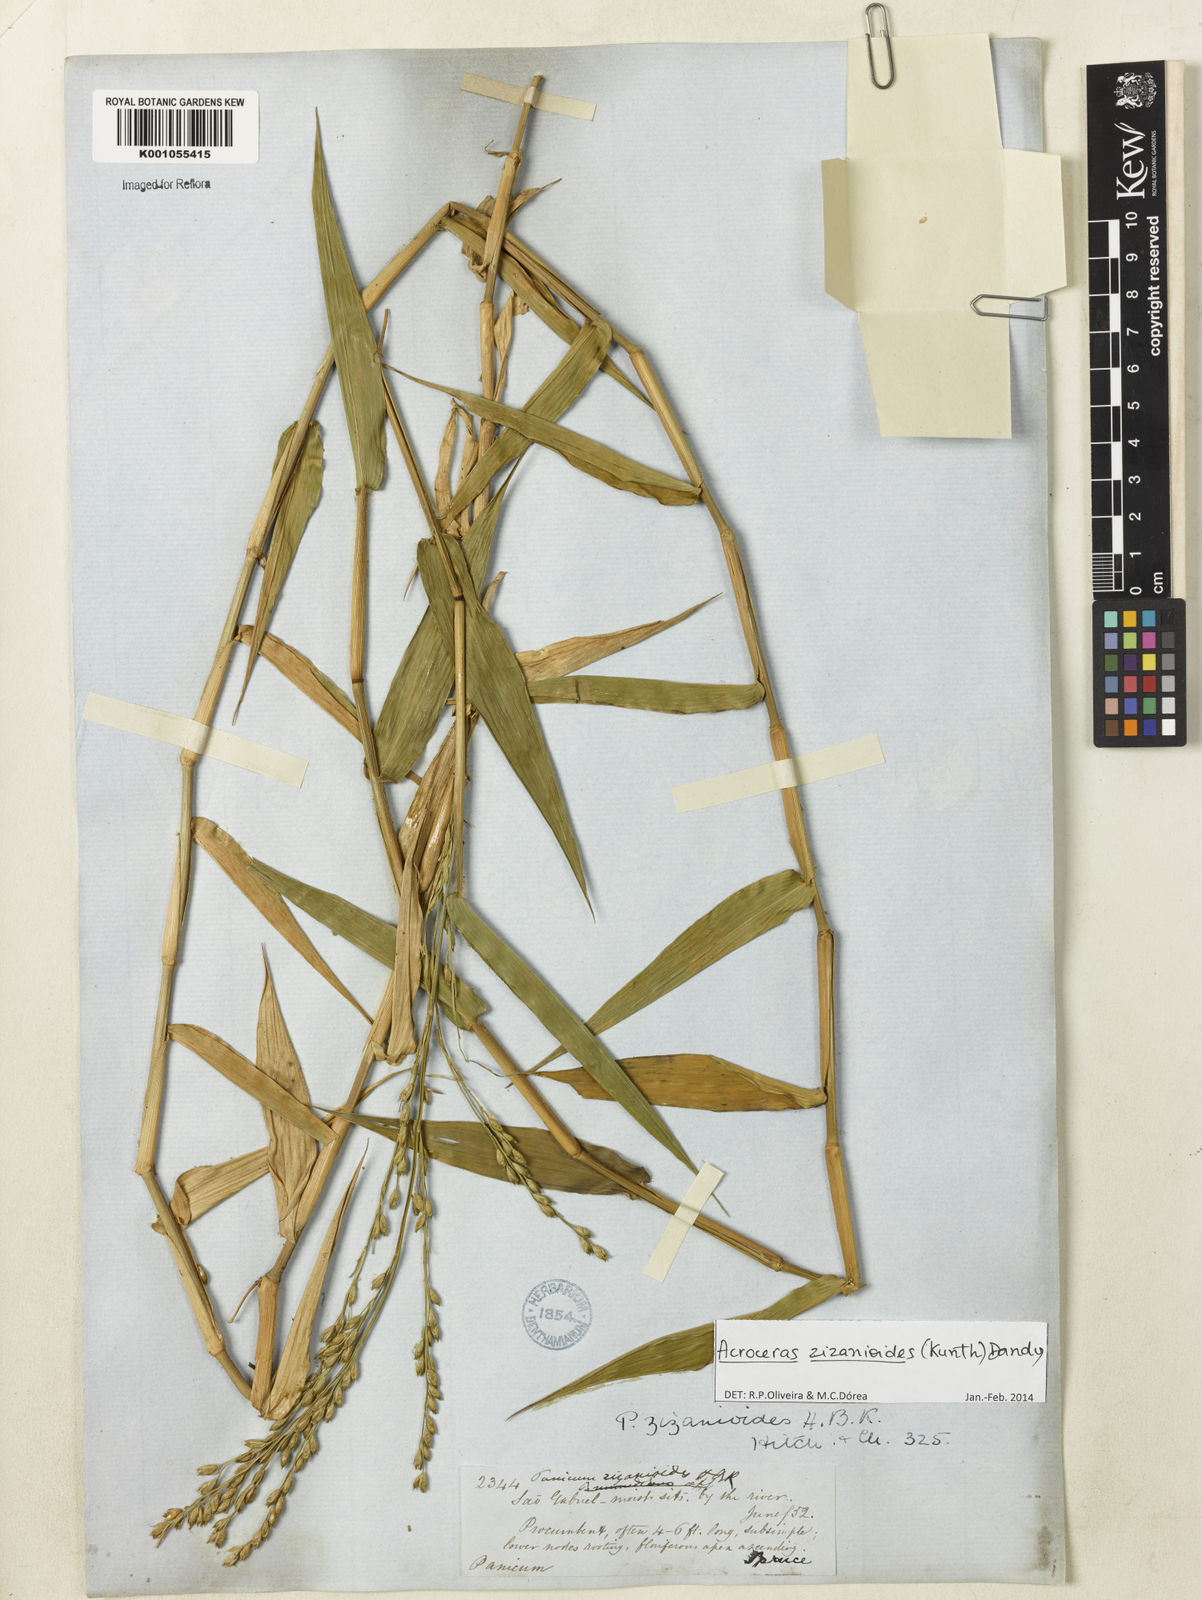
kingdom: Plantae
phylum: Tracheophyta
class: Liliopsida
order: Poales
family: Poaceae
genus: Acroceras
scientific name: Acroceras zizanioides
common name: Oat grass
